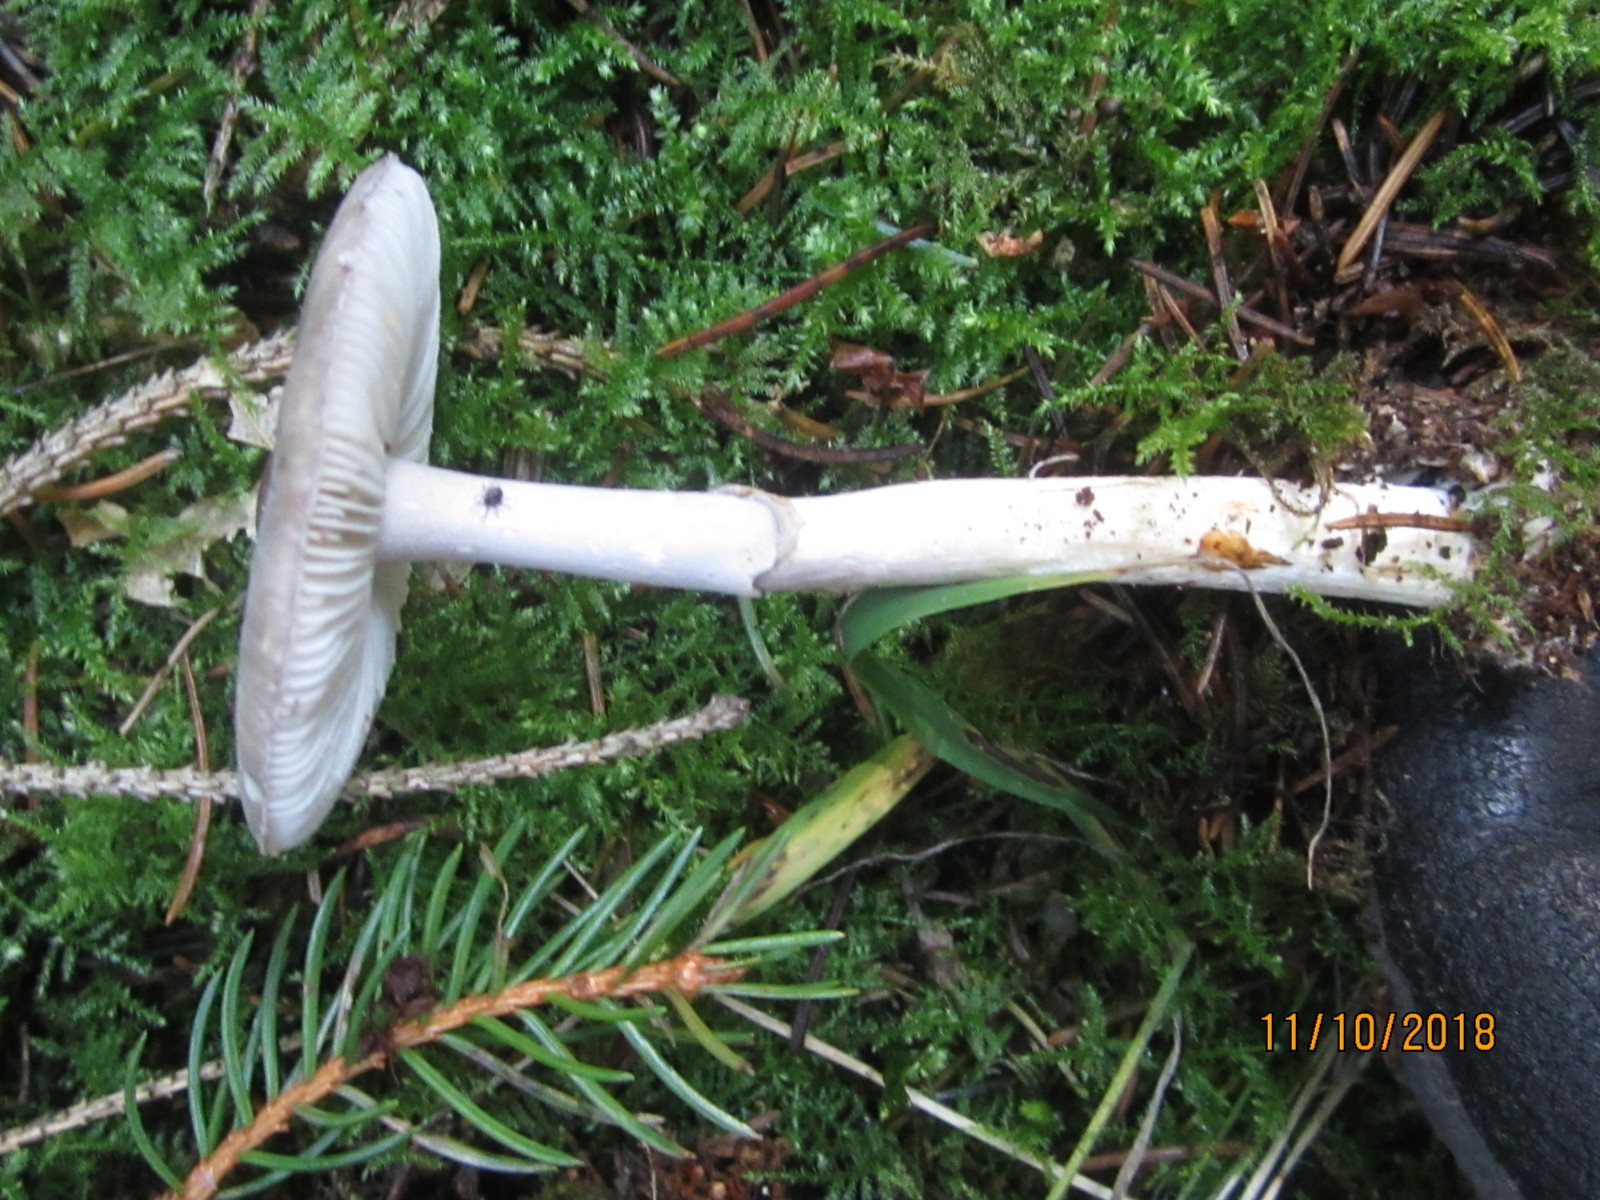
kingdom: Fungi
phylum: Basidiomycota
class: Agaricomycetes
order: Agaricales
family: Amanitaceae
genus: Amanita
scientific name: Amanita porphyria
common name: porfyr-fluesvamp
